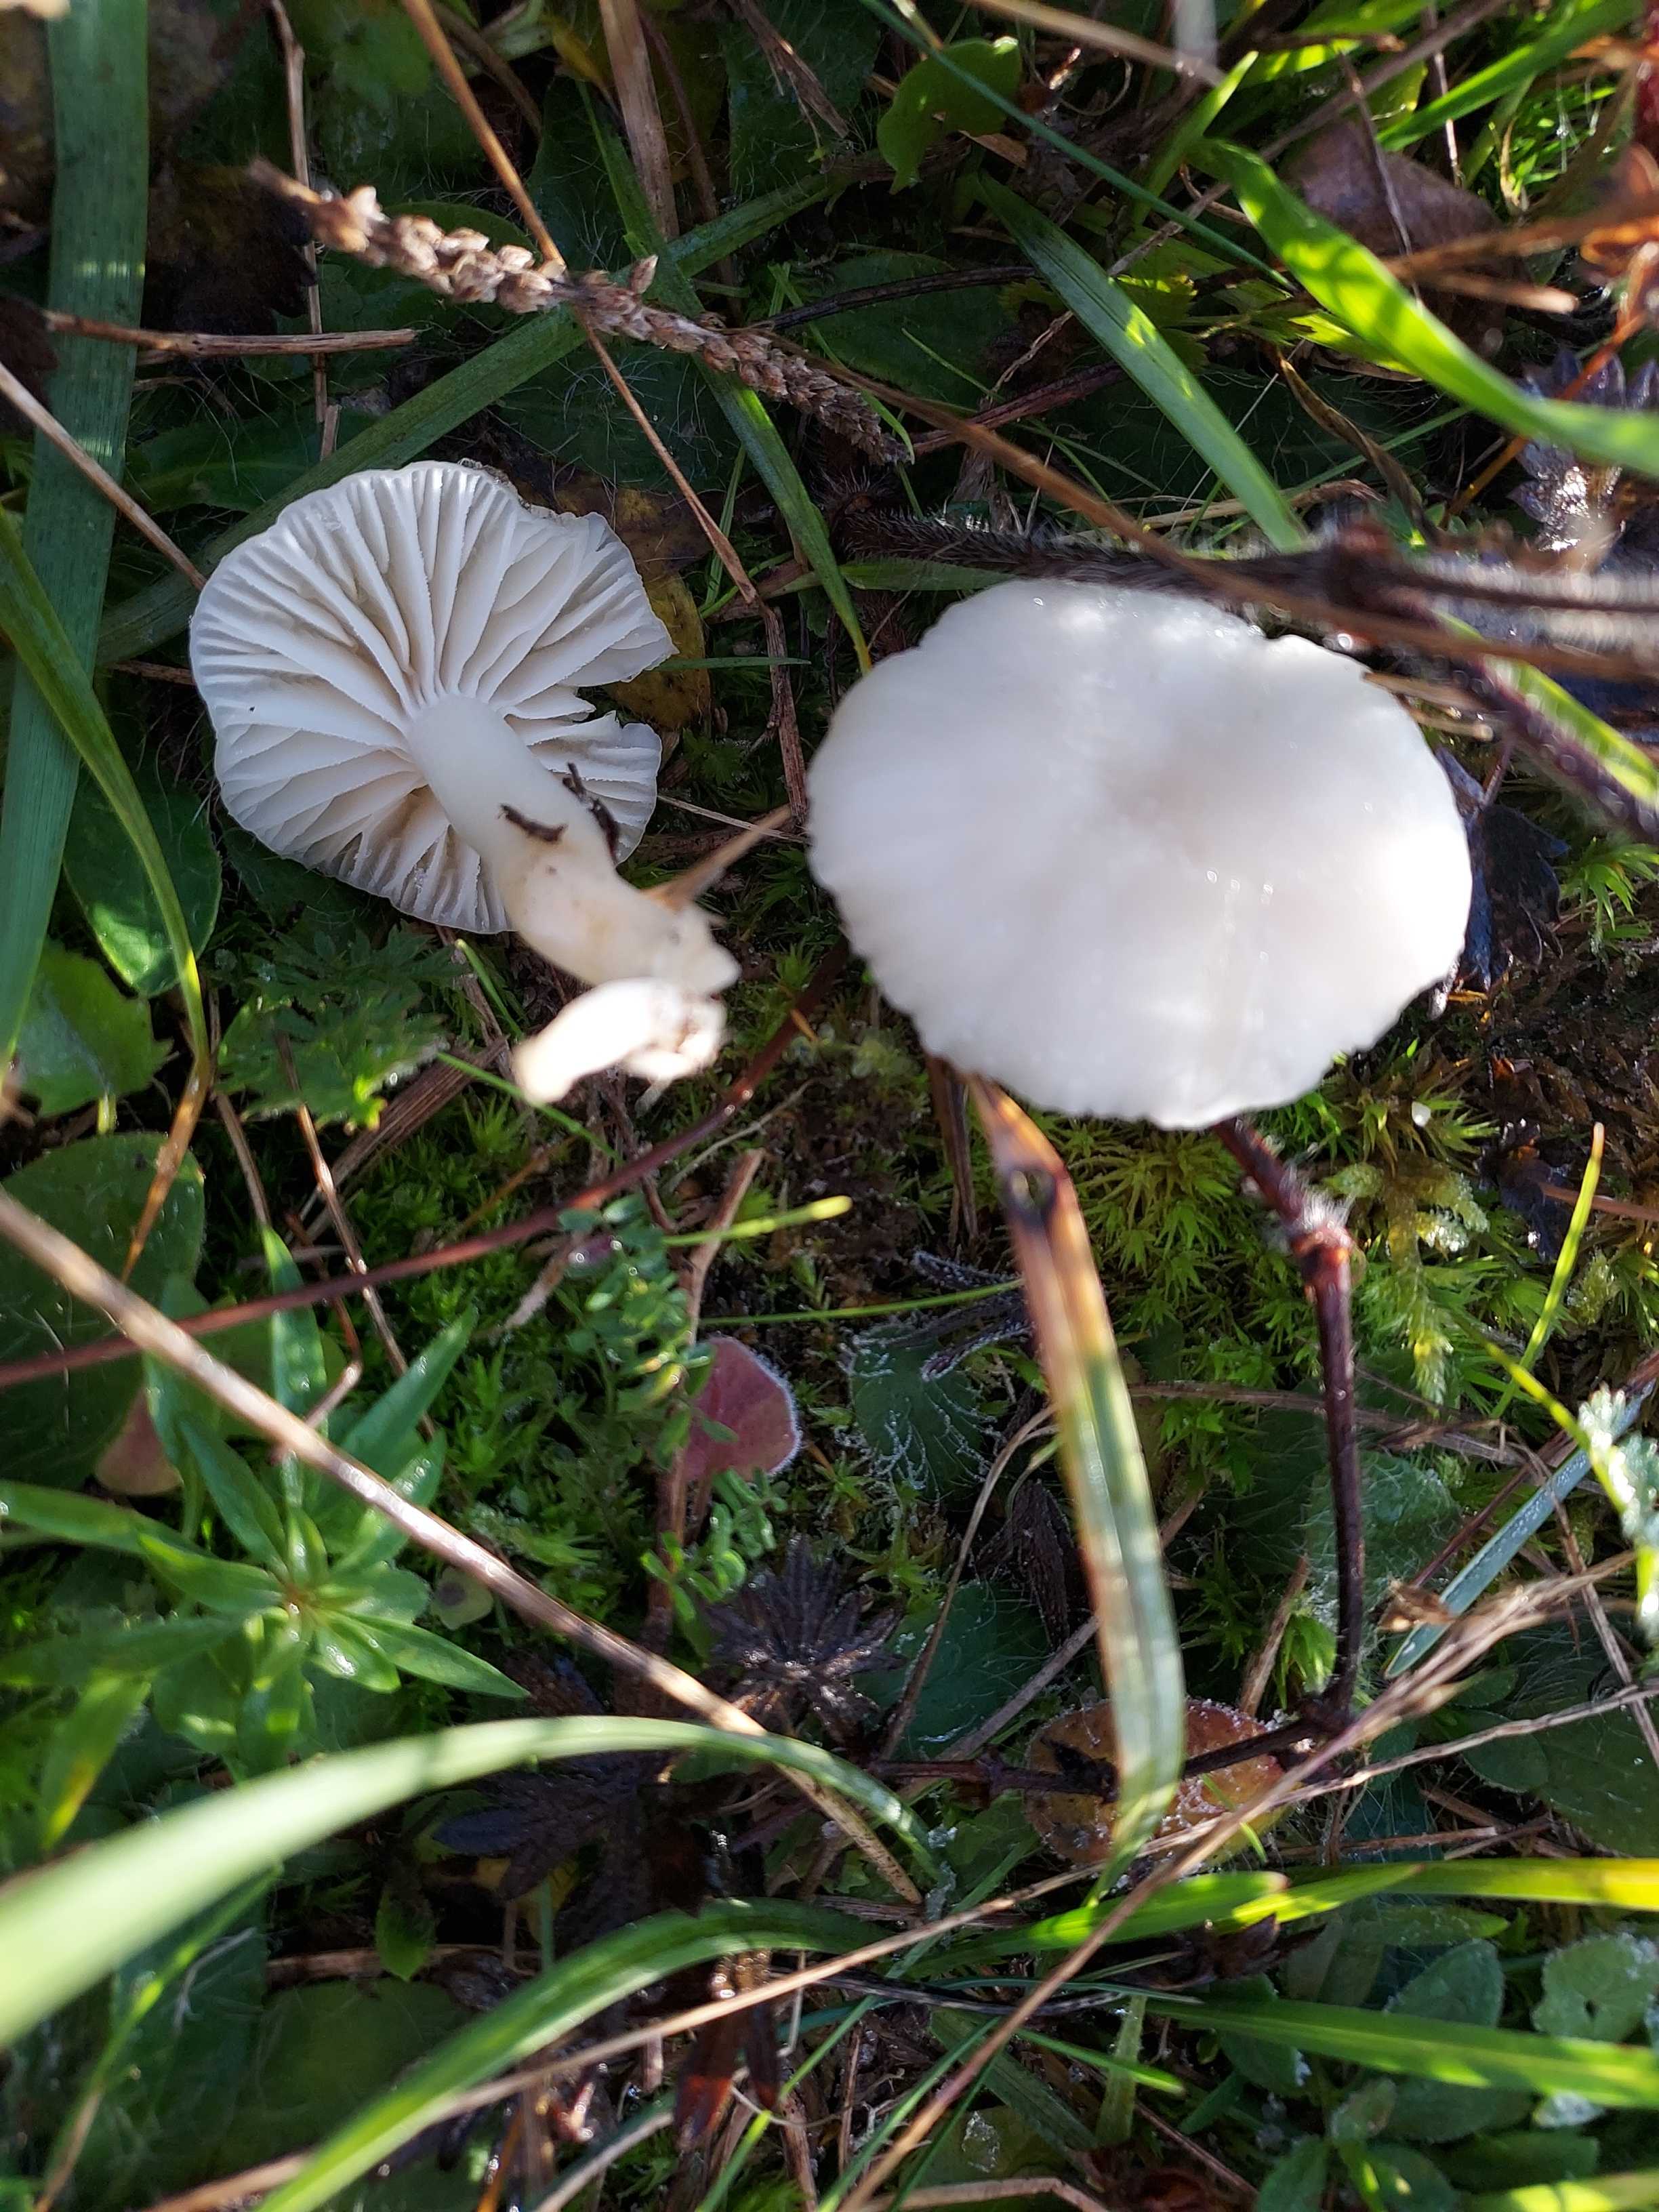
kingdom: Fungi
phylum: Basidiomycota
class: Agaricomycetes
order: Agaricales
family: Hygrophoraceae
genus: Cuphophyllus
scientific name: Cuphophyllus virgineus
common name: snehvid vokshat
